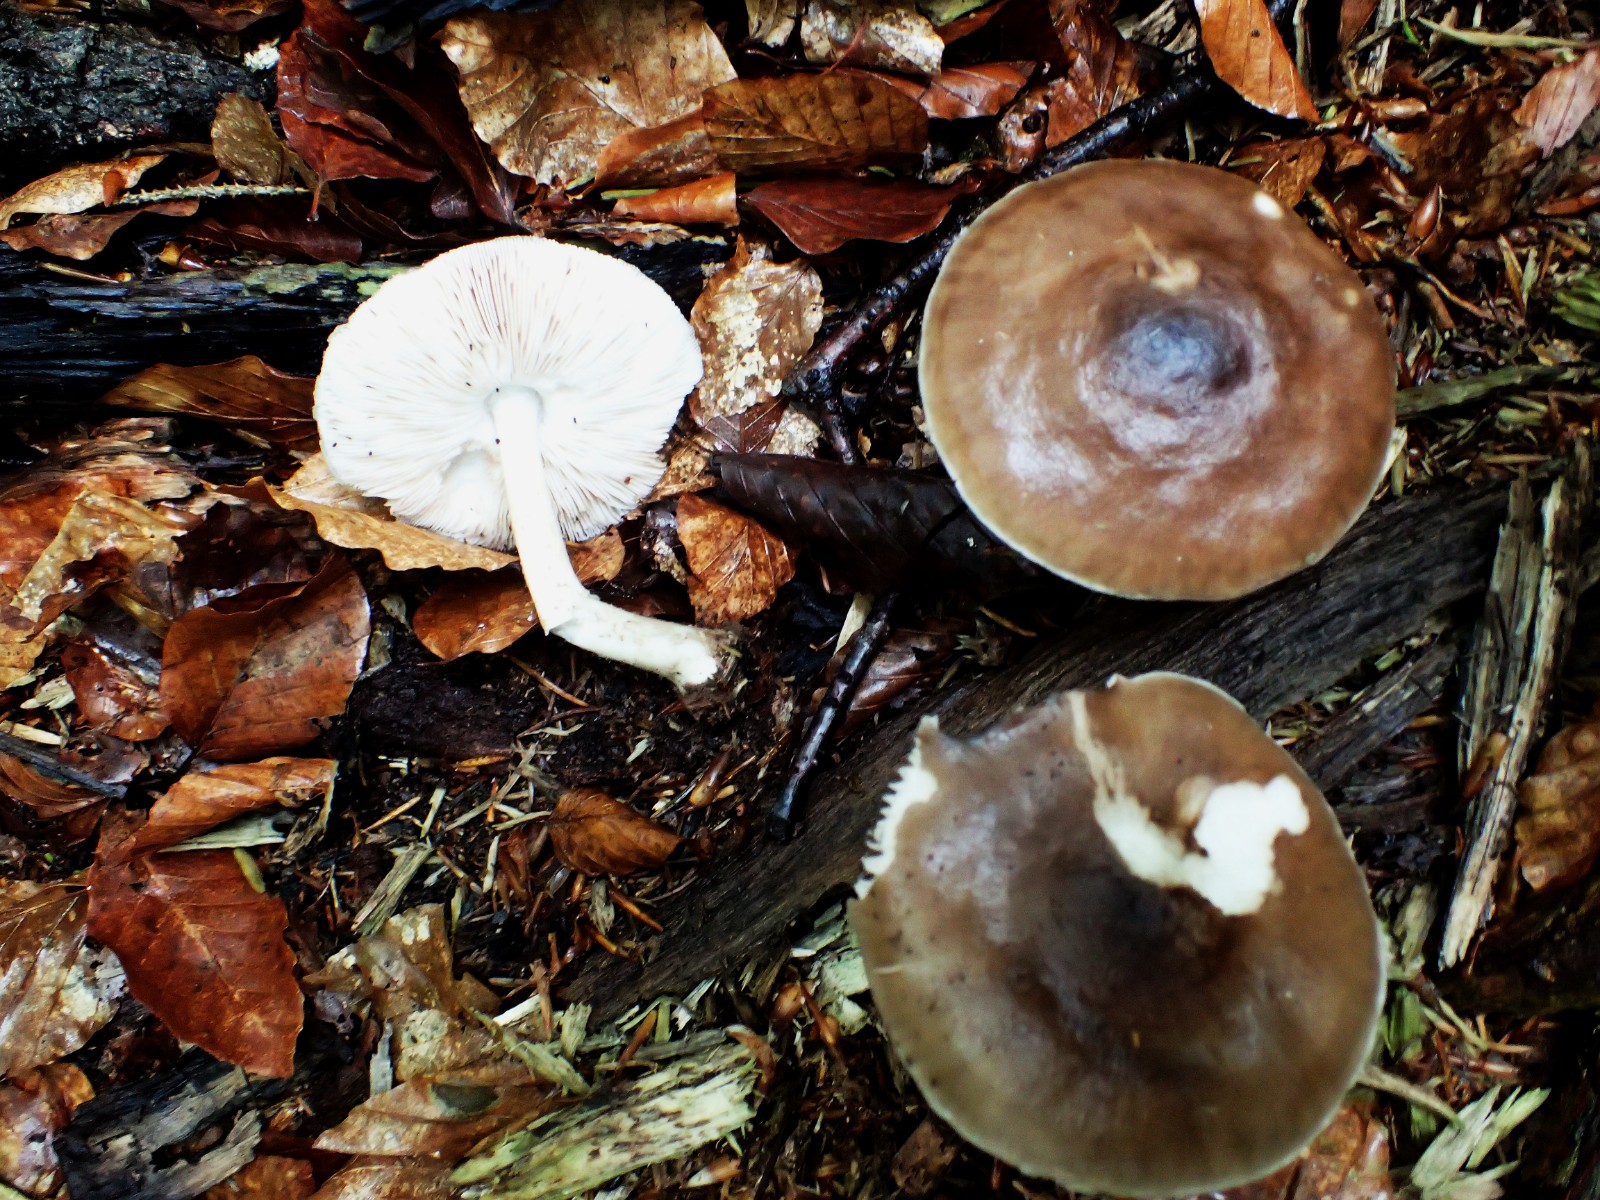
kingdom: Fungi
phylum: Basidiomycota
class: Agaricomycetes
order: Agaricales
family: Pluteaceae
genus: Pluteus
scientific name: Pluteus cervinus
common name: sodfarvet skærmhat
